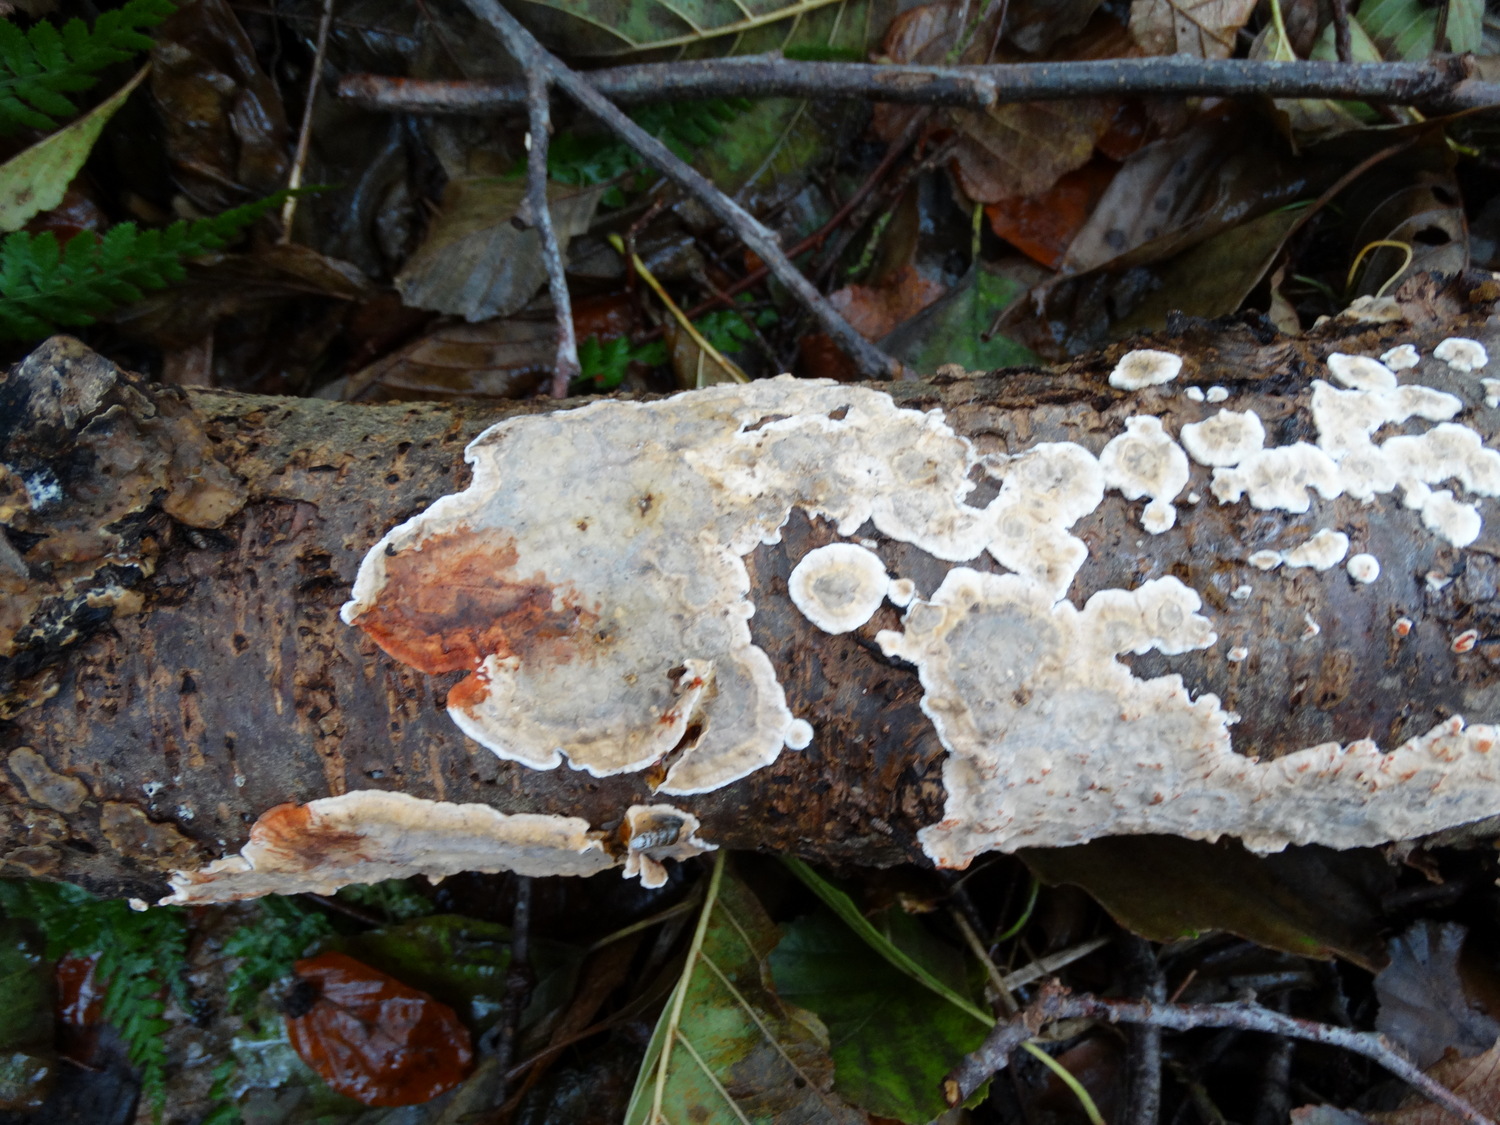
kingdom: Fungi
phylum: Basidiomycota
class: Agaricomycetes
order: Russulales
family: Stereaceae
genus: Stereum
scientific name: Stereum rugosum
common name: rynket lædersvamp
